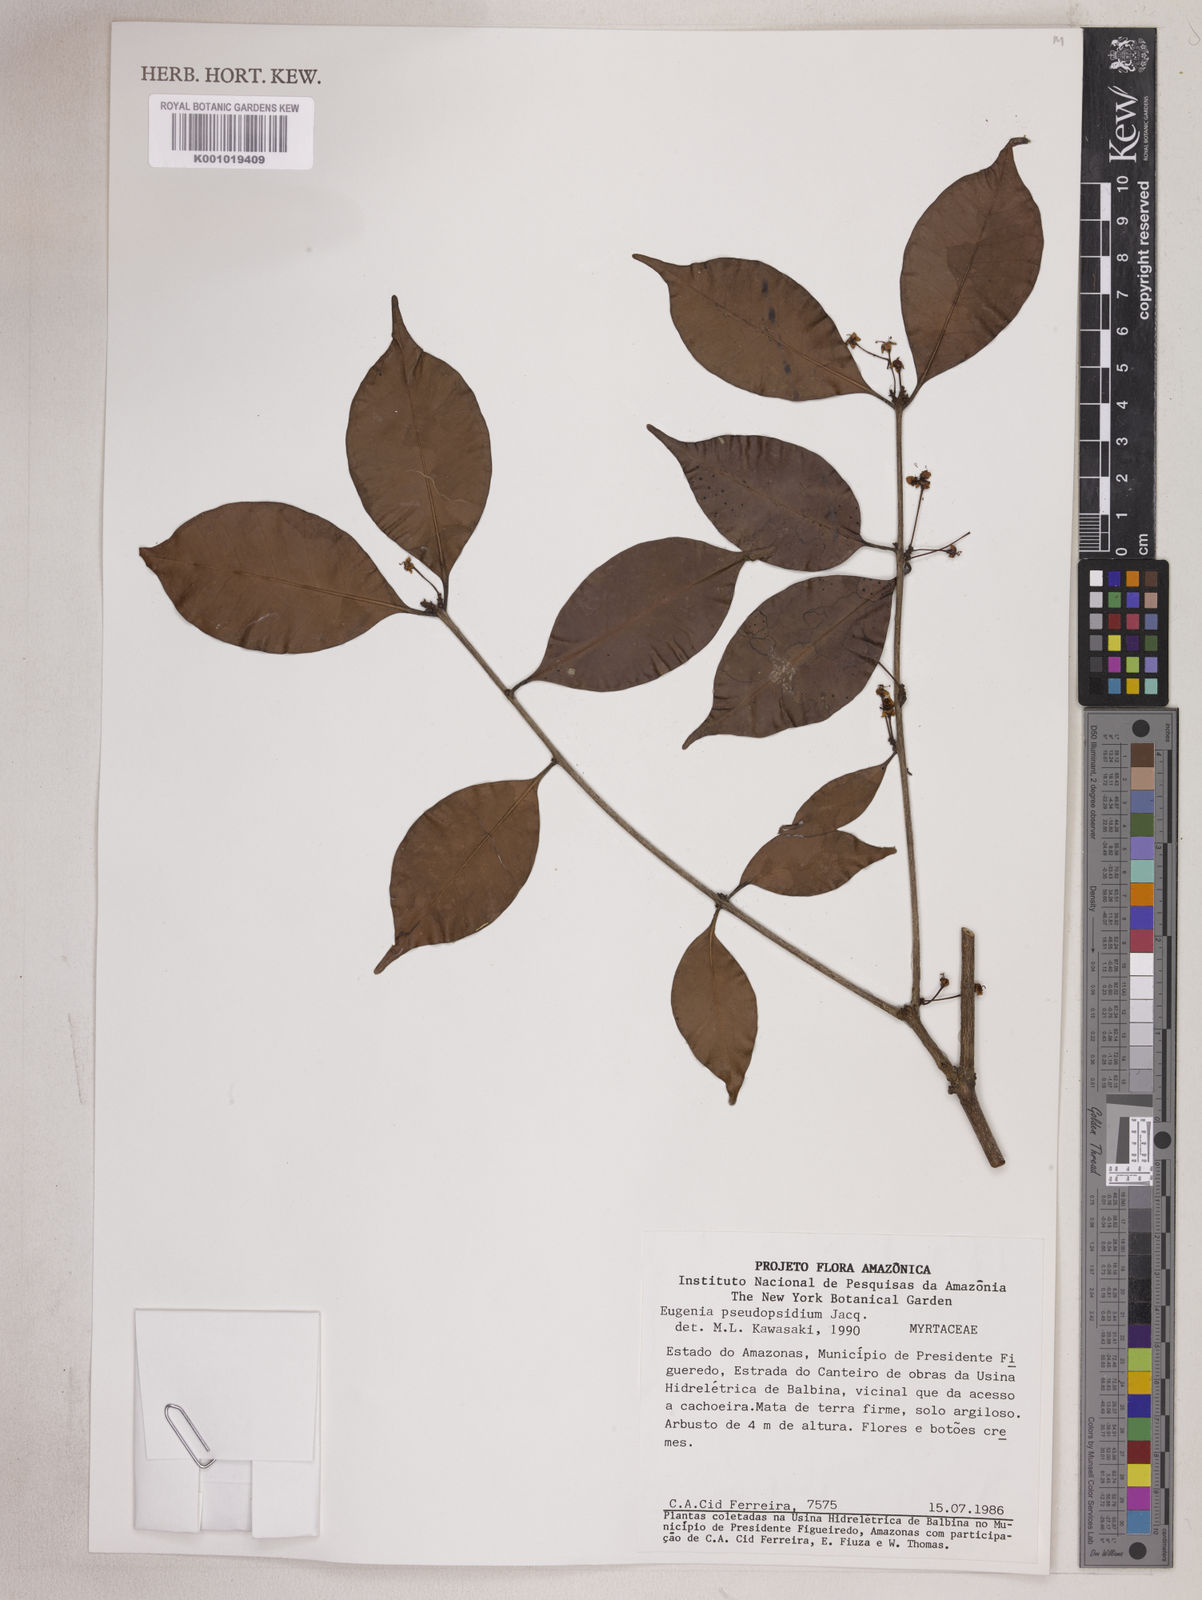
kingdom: Plantae
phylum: Tracheophyta
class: Magnoliopsida
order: Myrtales
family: Myrtaceae
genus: Eugenia
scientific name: Eugenia pseudopsidium
